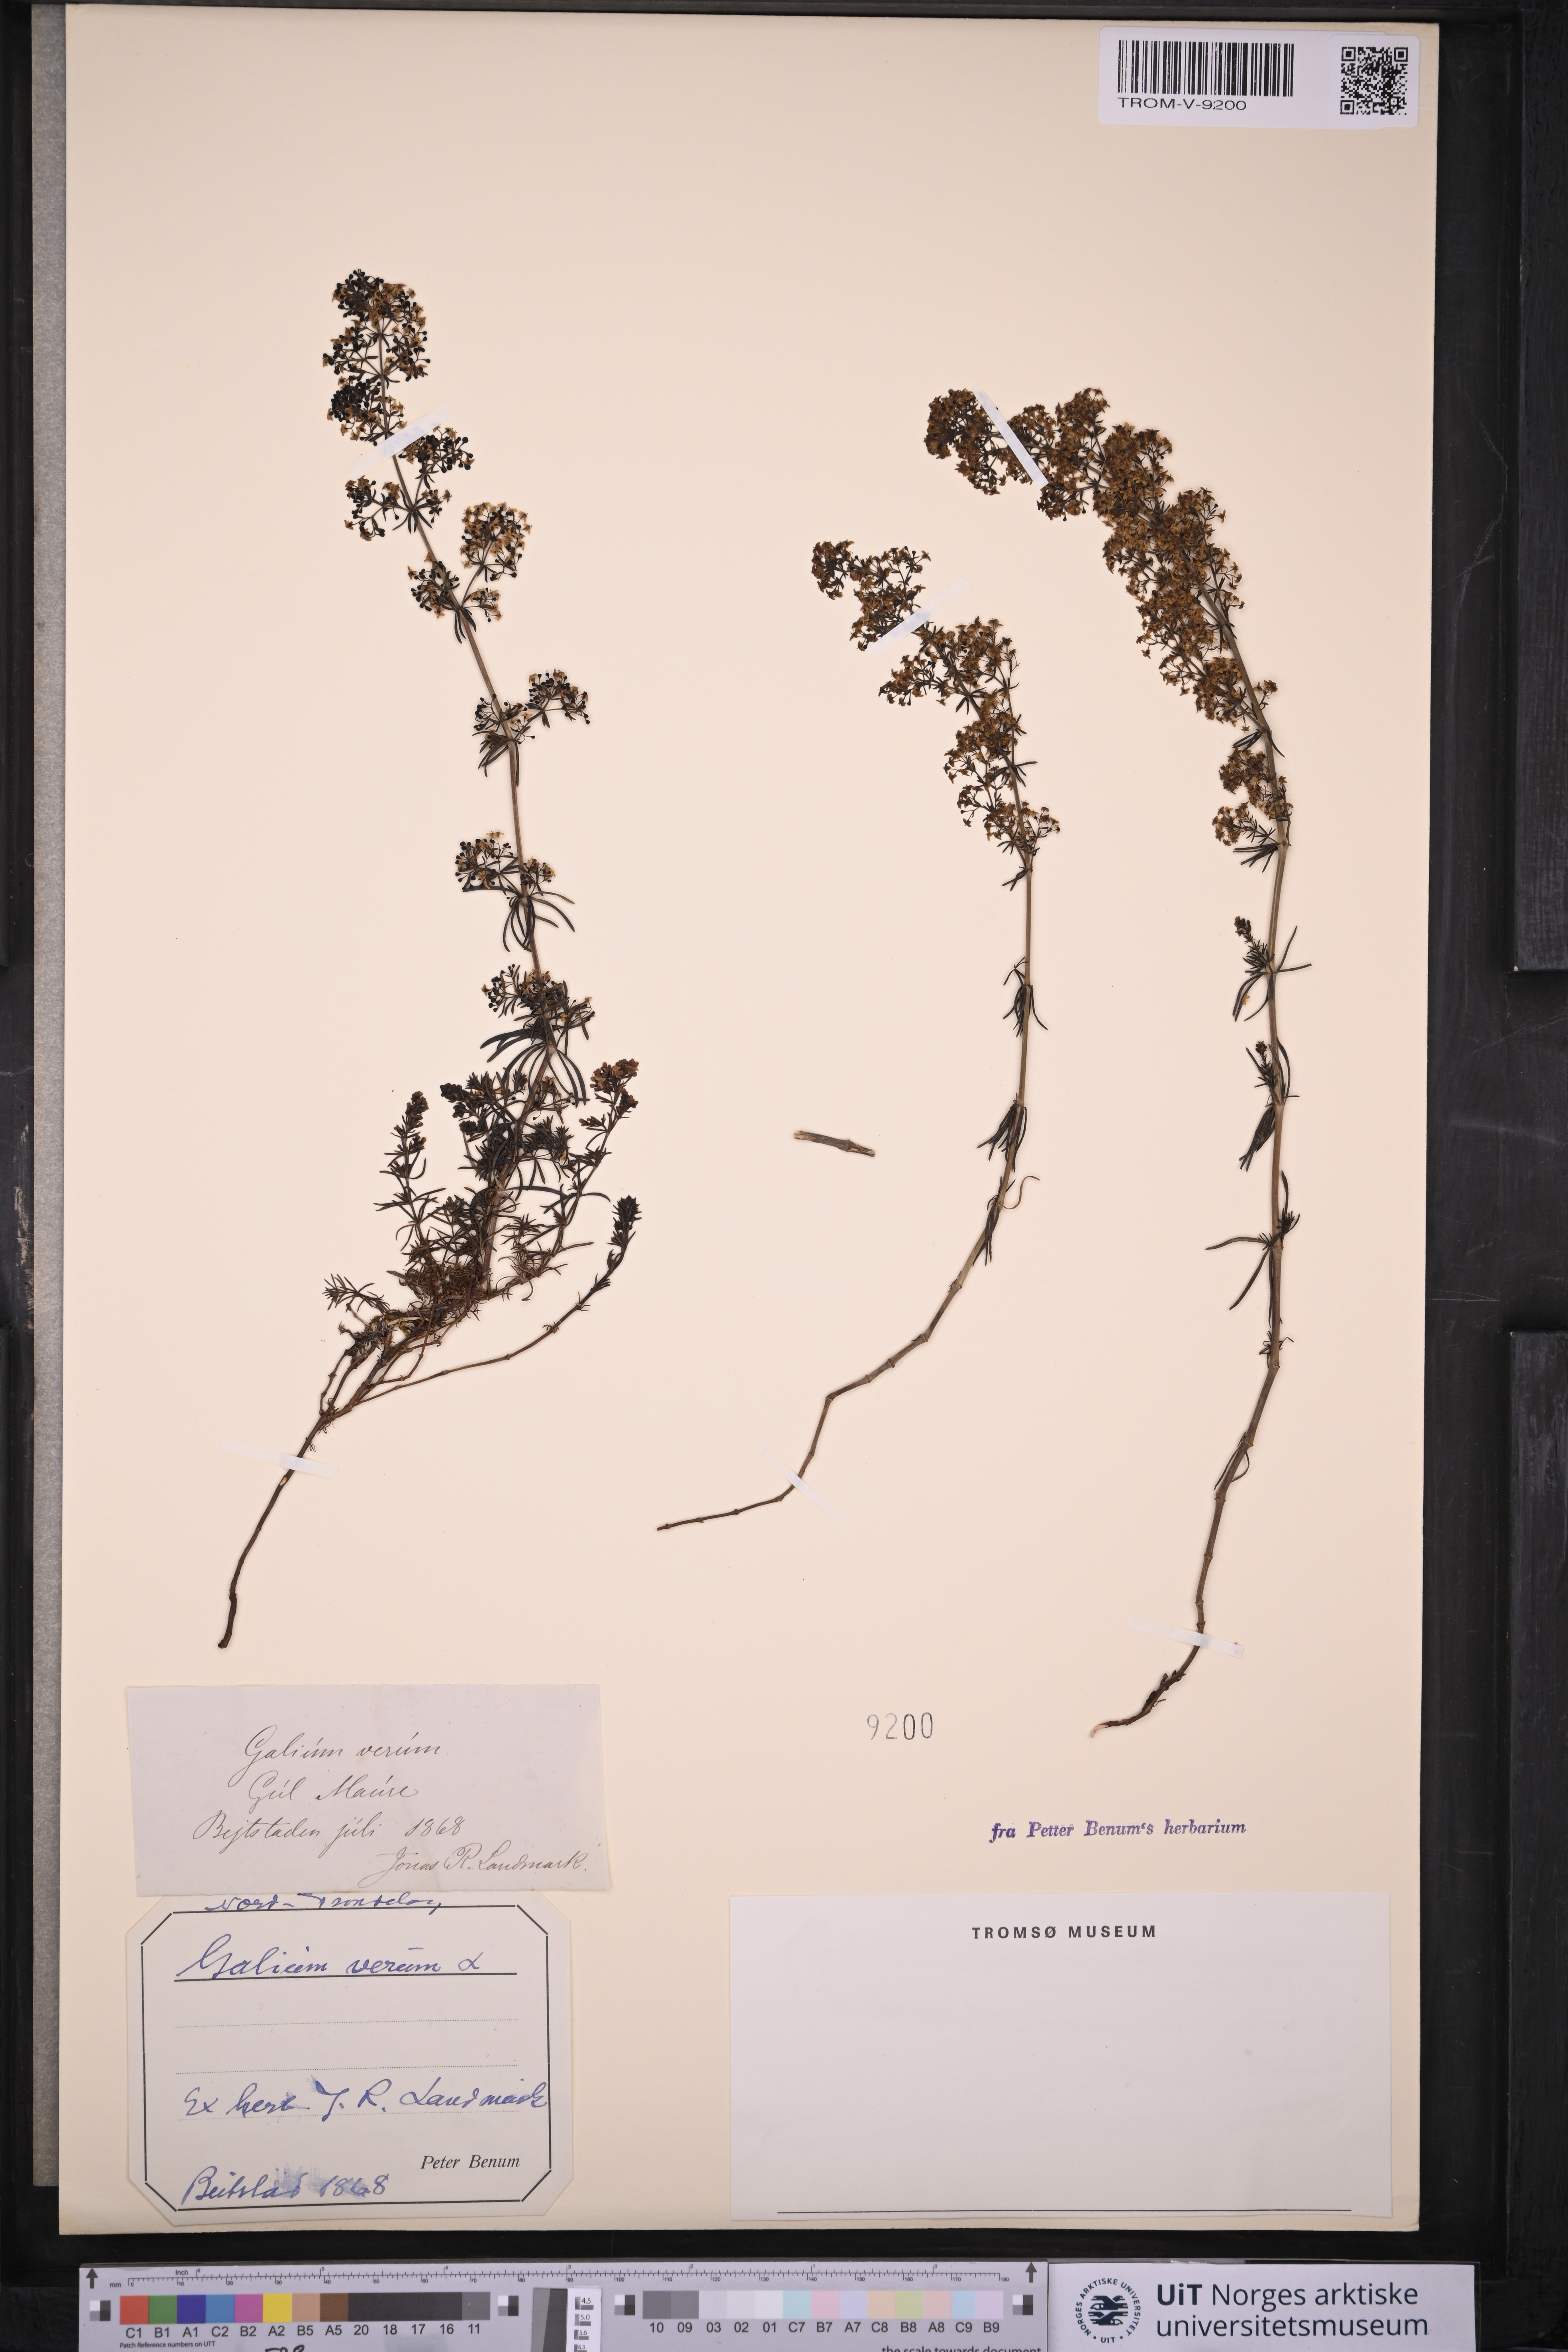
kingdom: Plantae
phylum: Tracheophyta
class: Magnoliopsida
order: Gentianales
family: Rubiaceae
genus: Galium
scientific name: Galium verum
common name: Lady's bedstraw
